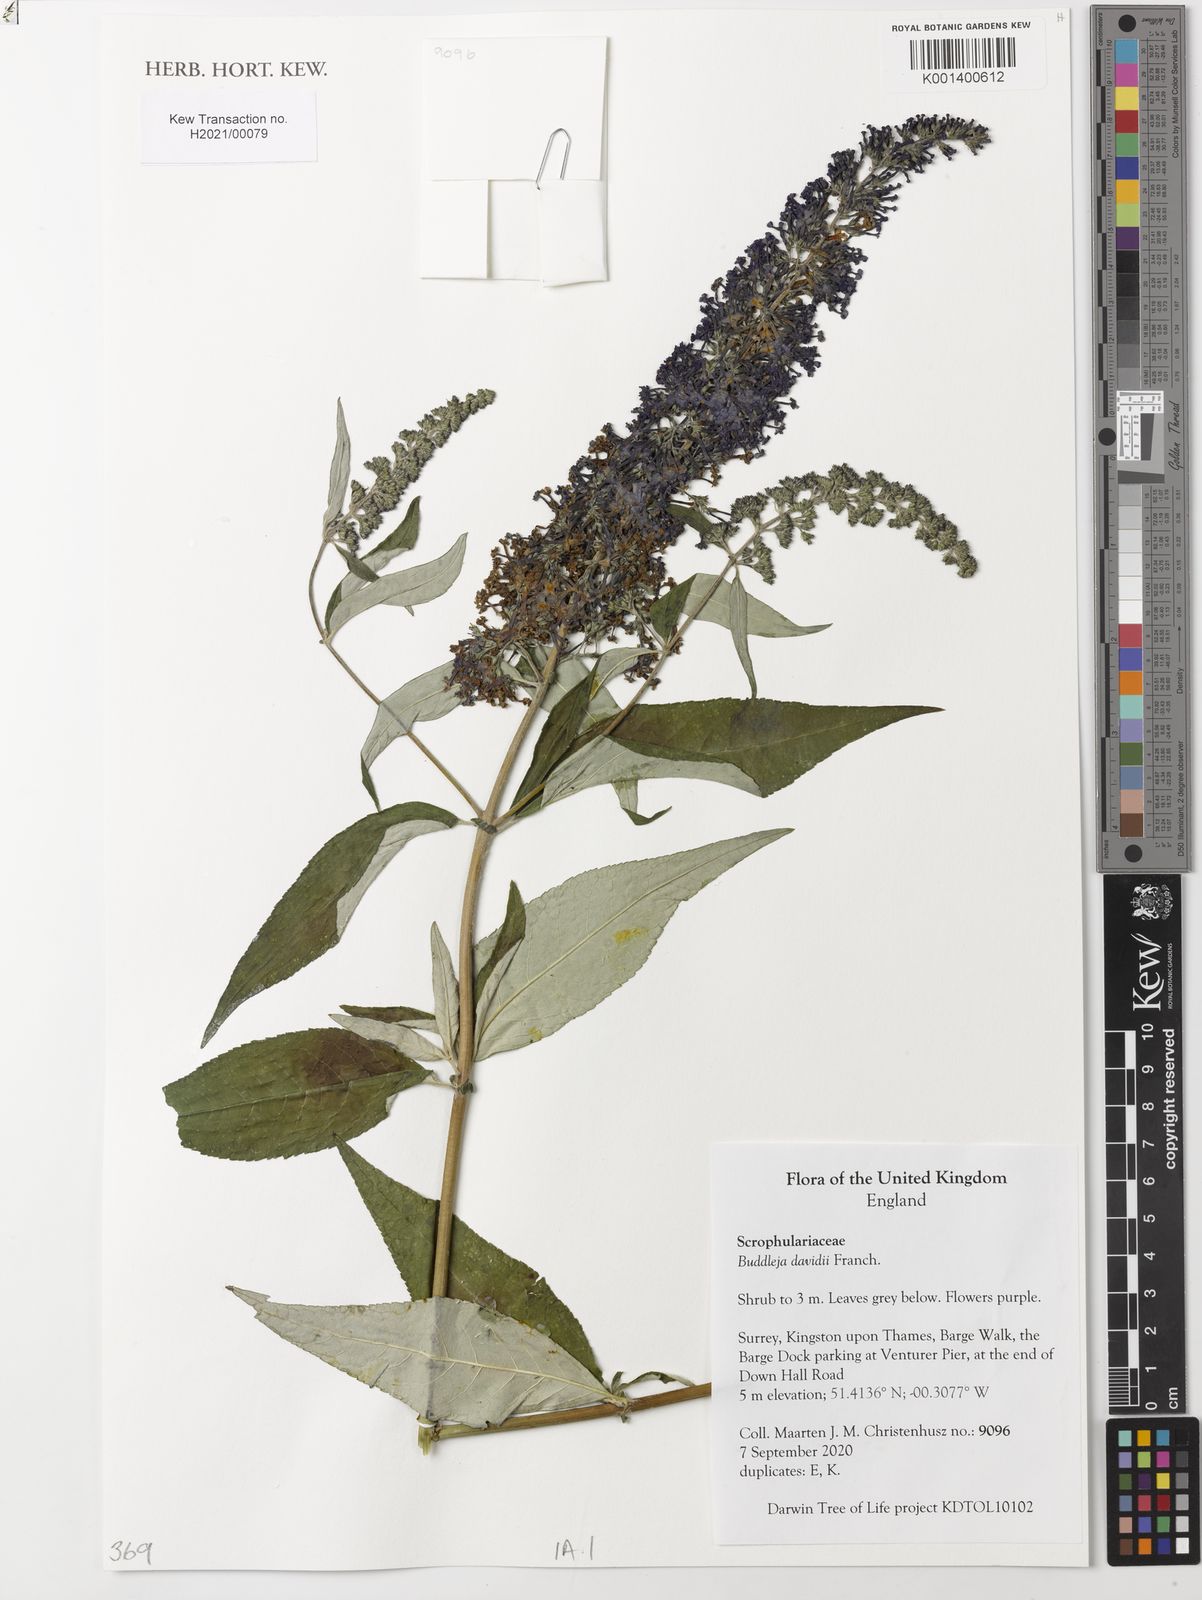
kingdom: Plantae
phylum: Tracheophyta
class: Magnoliopsida
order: Lamiales
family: Scrophulariaceae
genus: Buddleja
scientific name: Buddleja davidii
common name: Butterfly-bush
